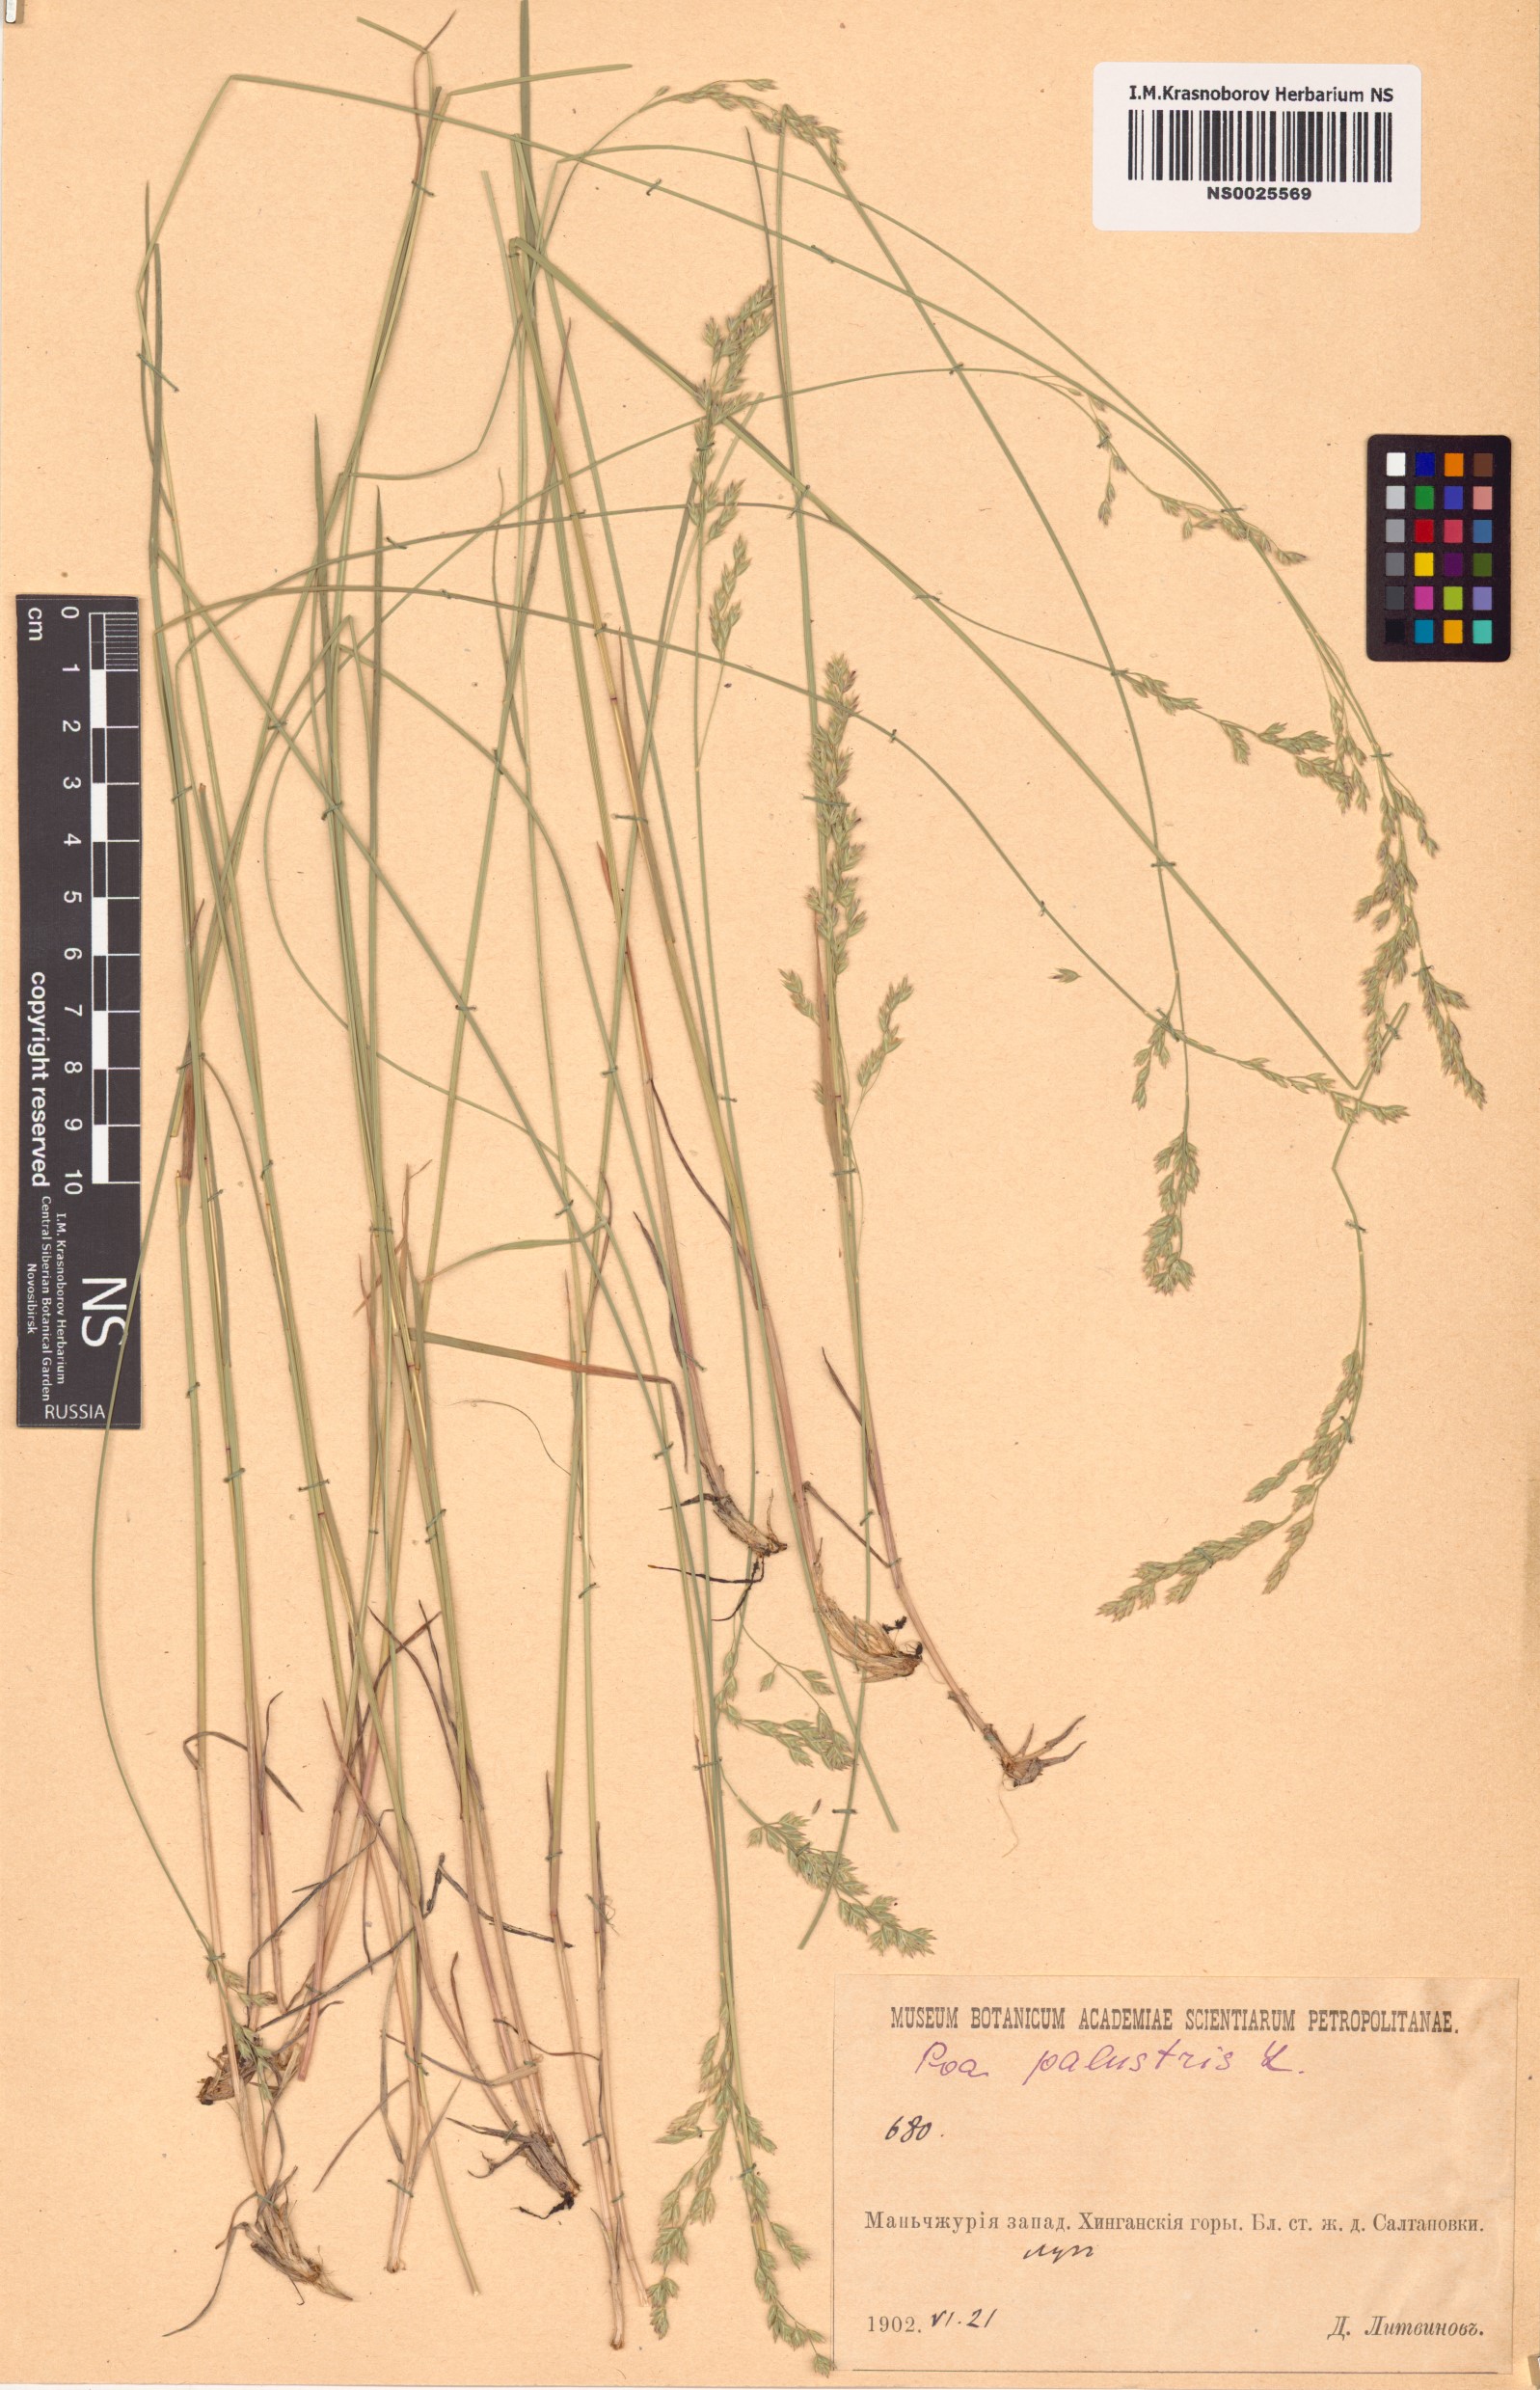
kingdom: Plantae
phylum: Tracheophyta
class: Liliopsida
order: Poales
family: Poaceae
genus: Poa
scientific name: Poa palustris
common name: Swamp meadow-grass
